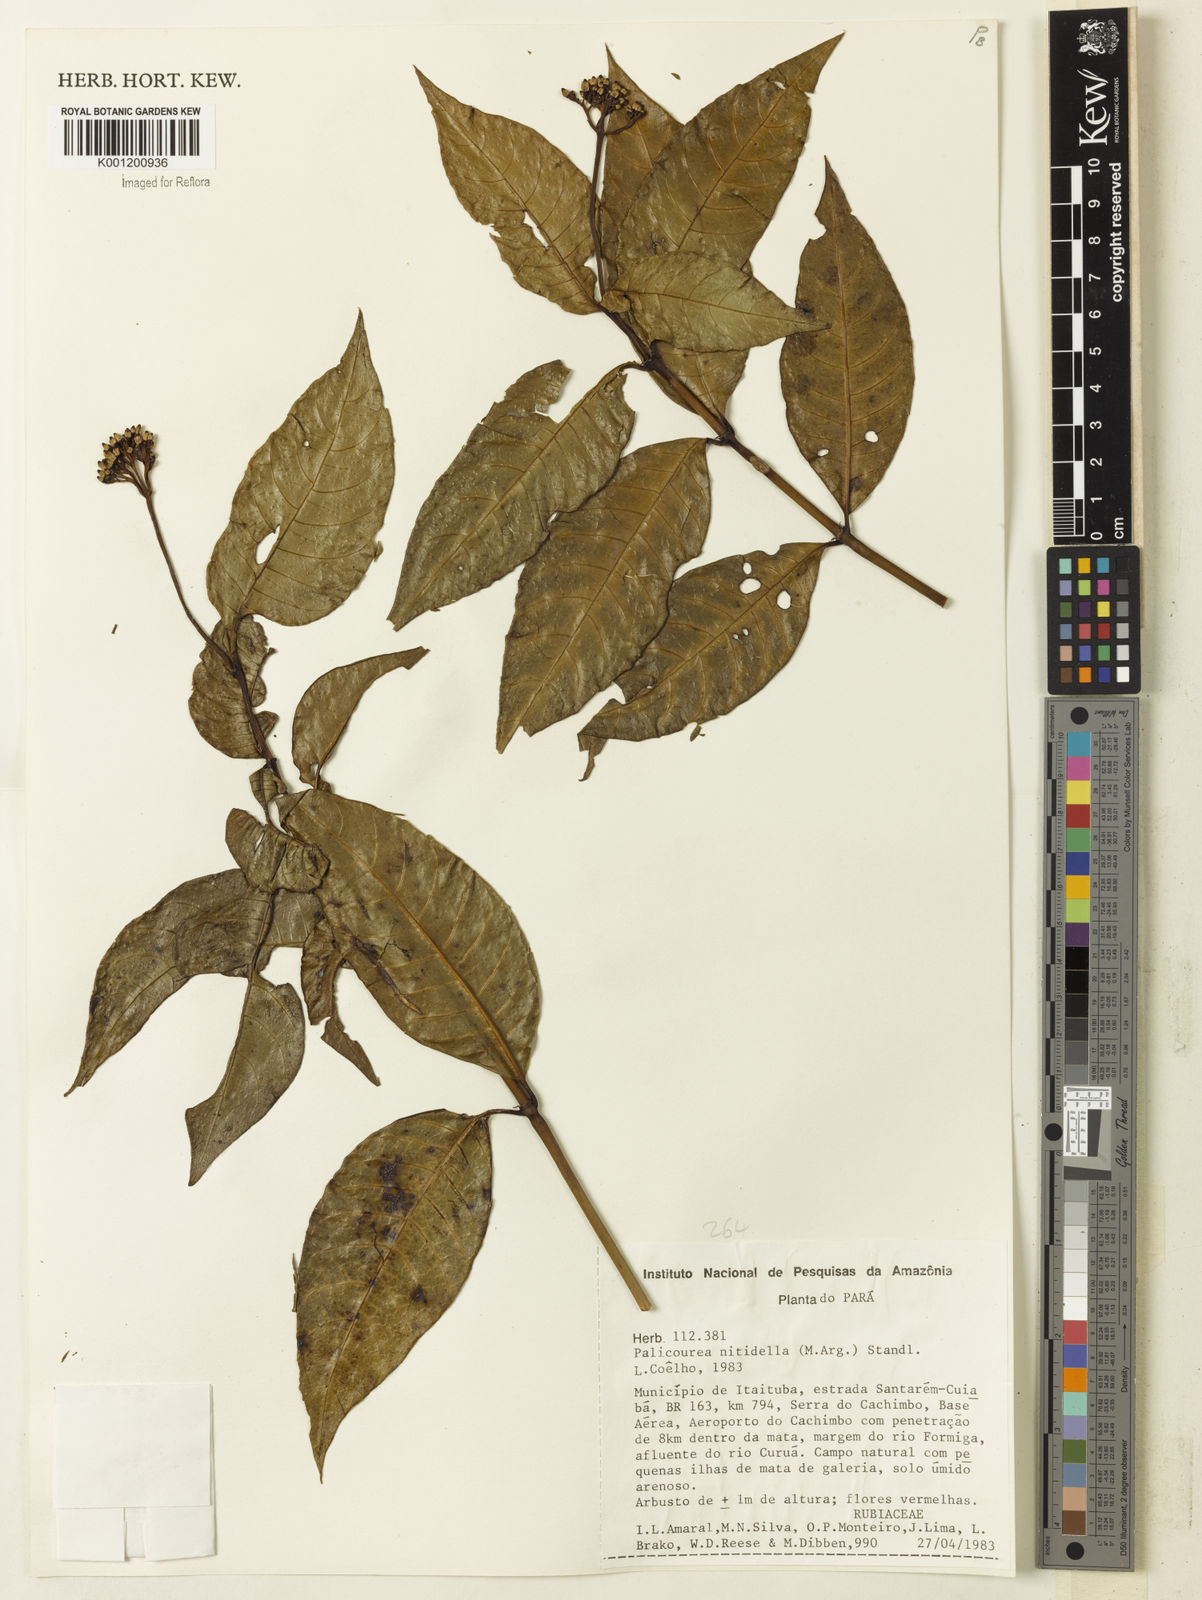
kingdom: Plantae
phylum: Tracheophyta
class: Magnoliopsida
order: Gentianales
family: Rubiaceae
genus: Palicourea
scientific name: Palicourea
